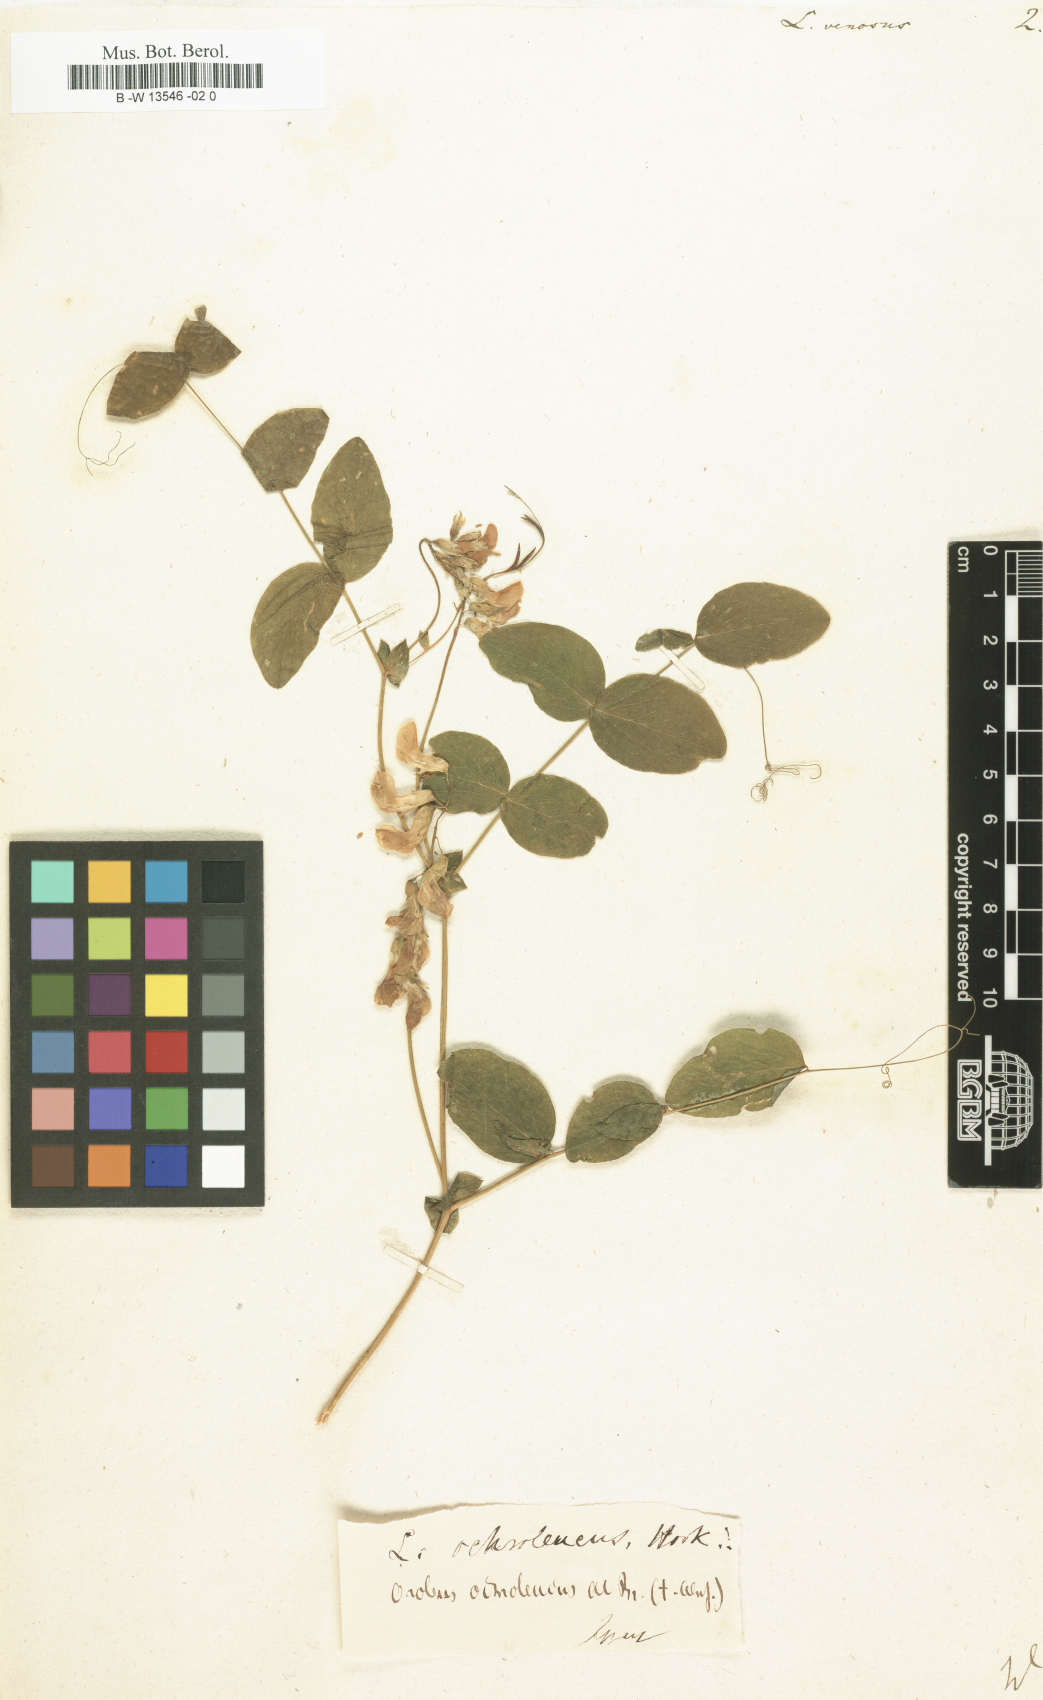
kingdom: Plantae
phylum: Tracheophyta
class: Magnoliopsida
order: Fabales
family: Fabaceae
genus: Lathyrus
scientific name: Lathyrus venosus
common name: Forest-pea
